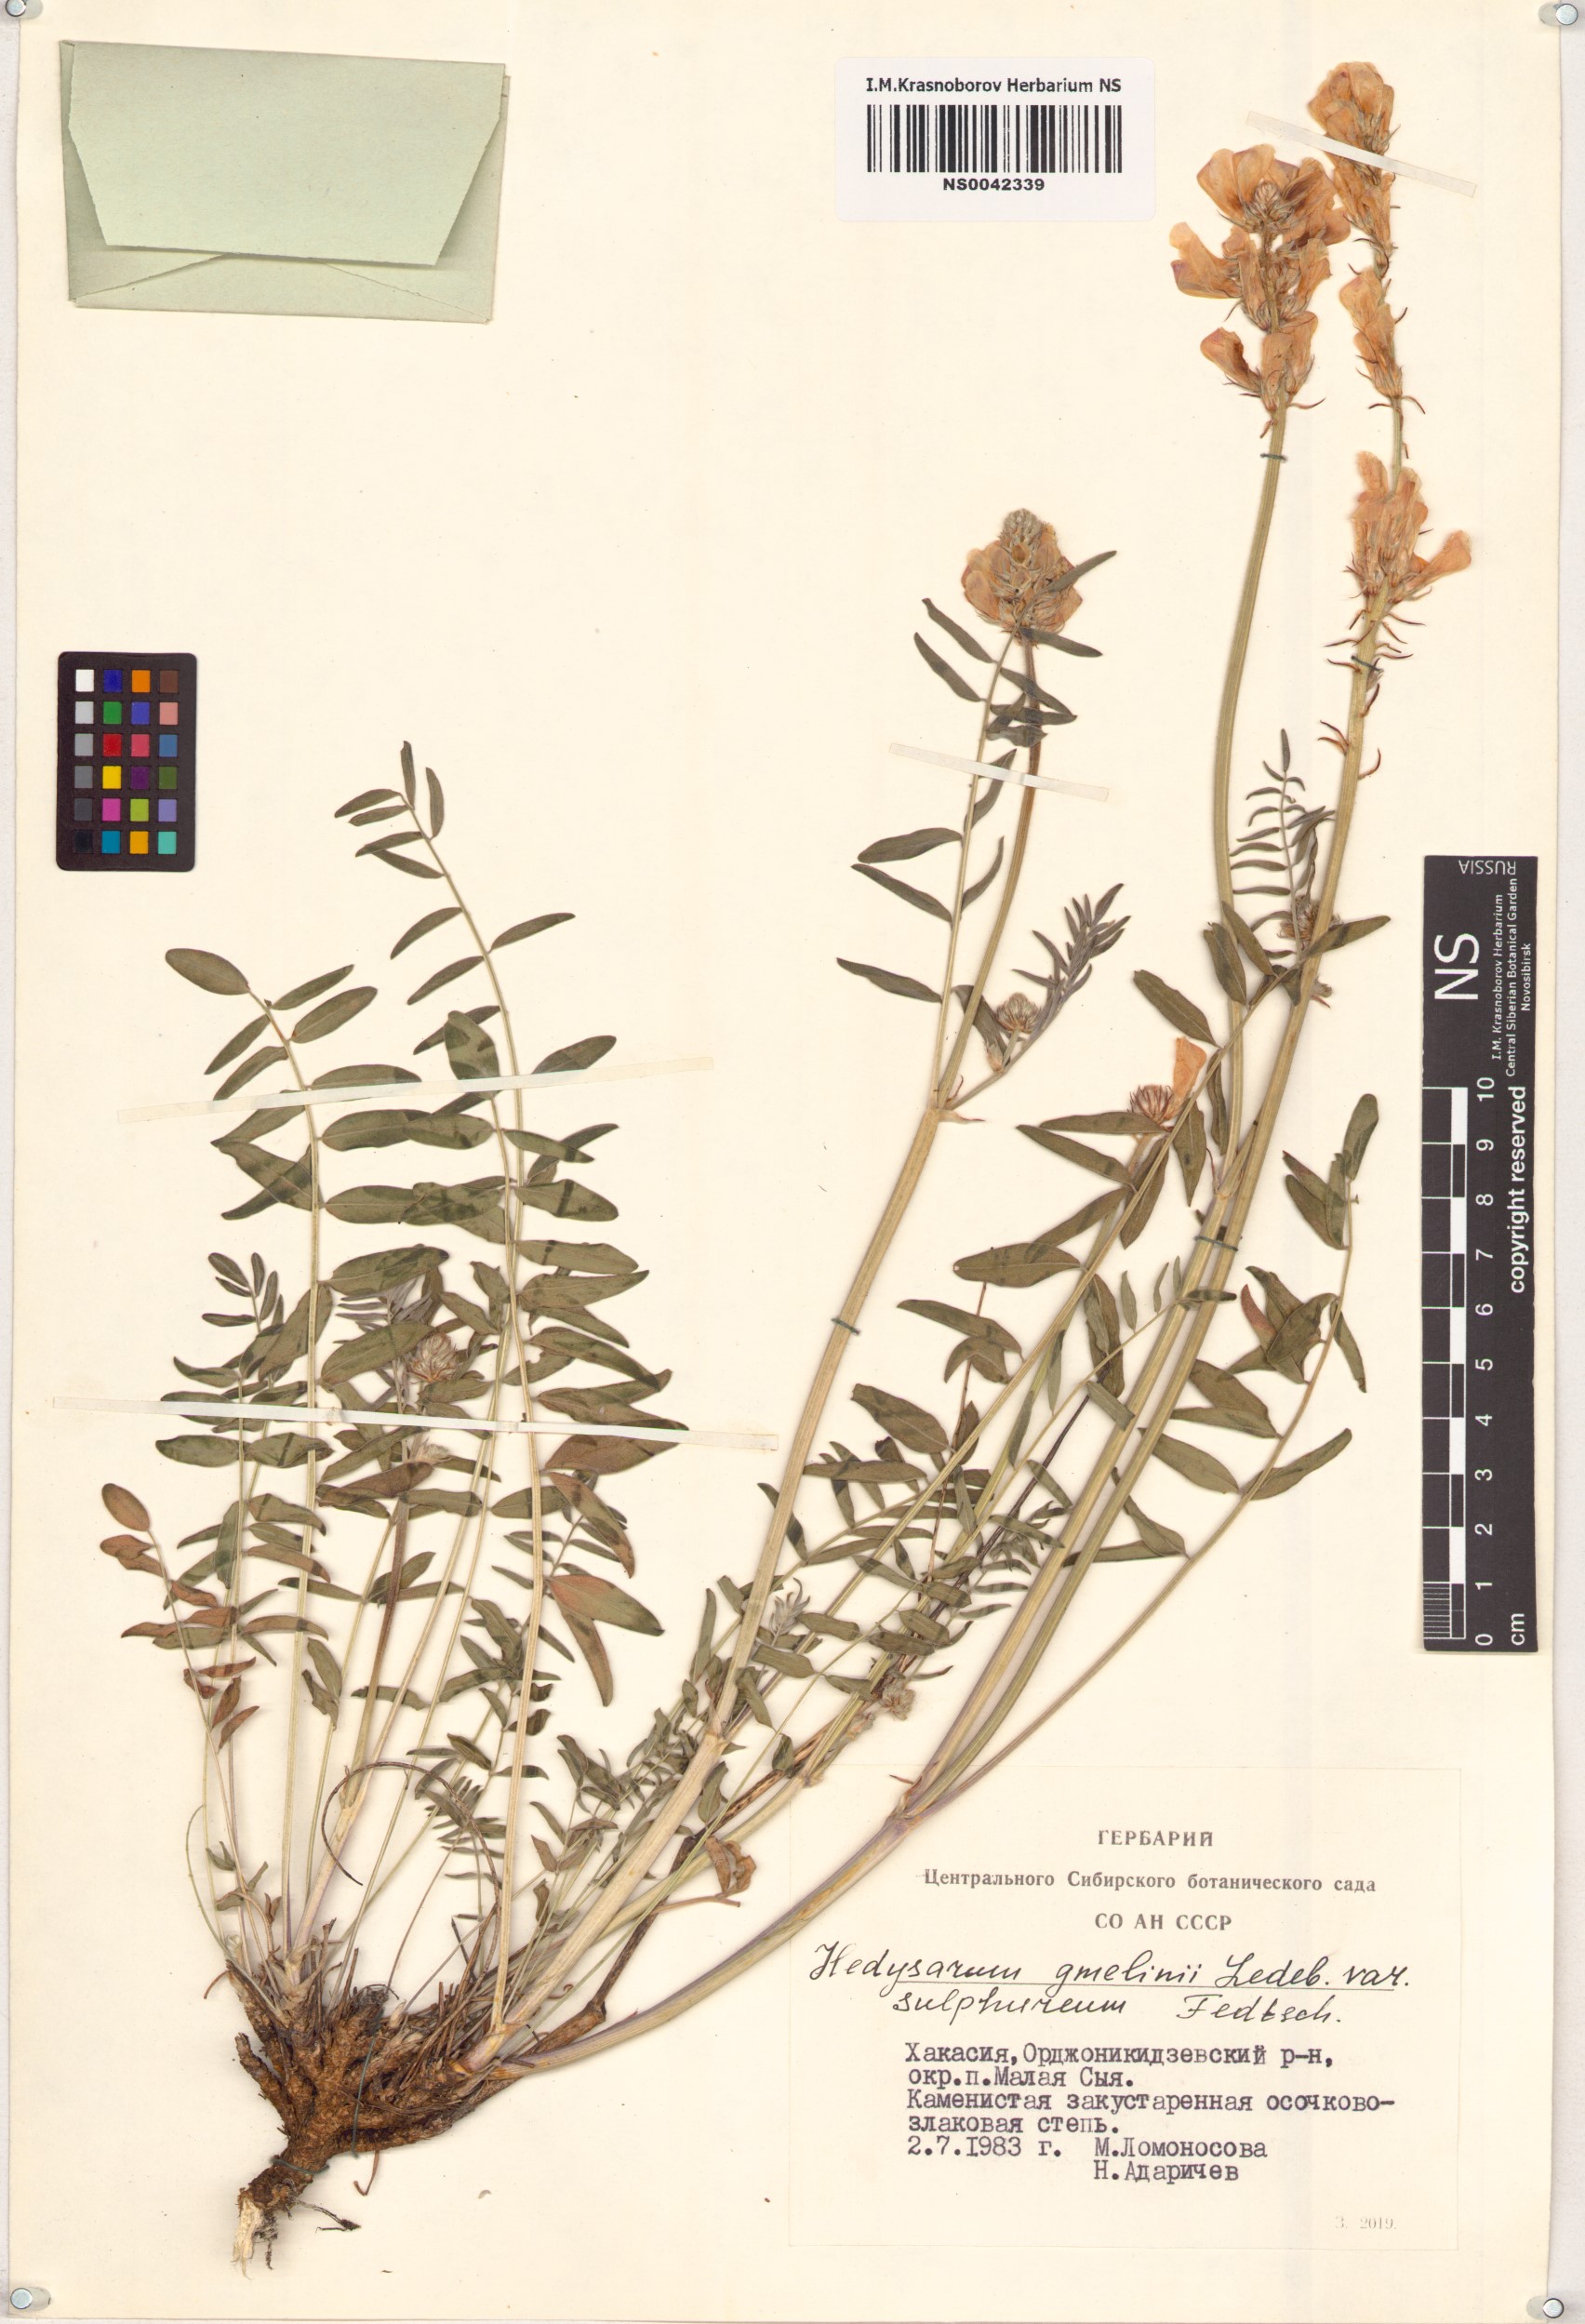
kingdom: Plantae
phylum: Tracheophyta
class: Magnoliopsida
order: Fabales
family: Fabaceae
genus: Hedysarum
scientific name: Hedysarum gmelinii
